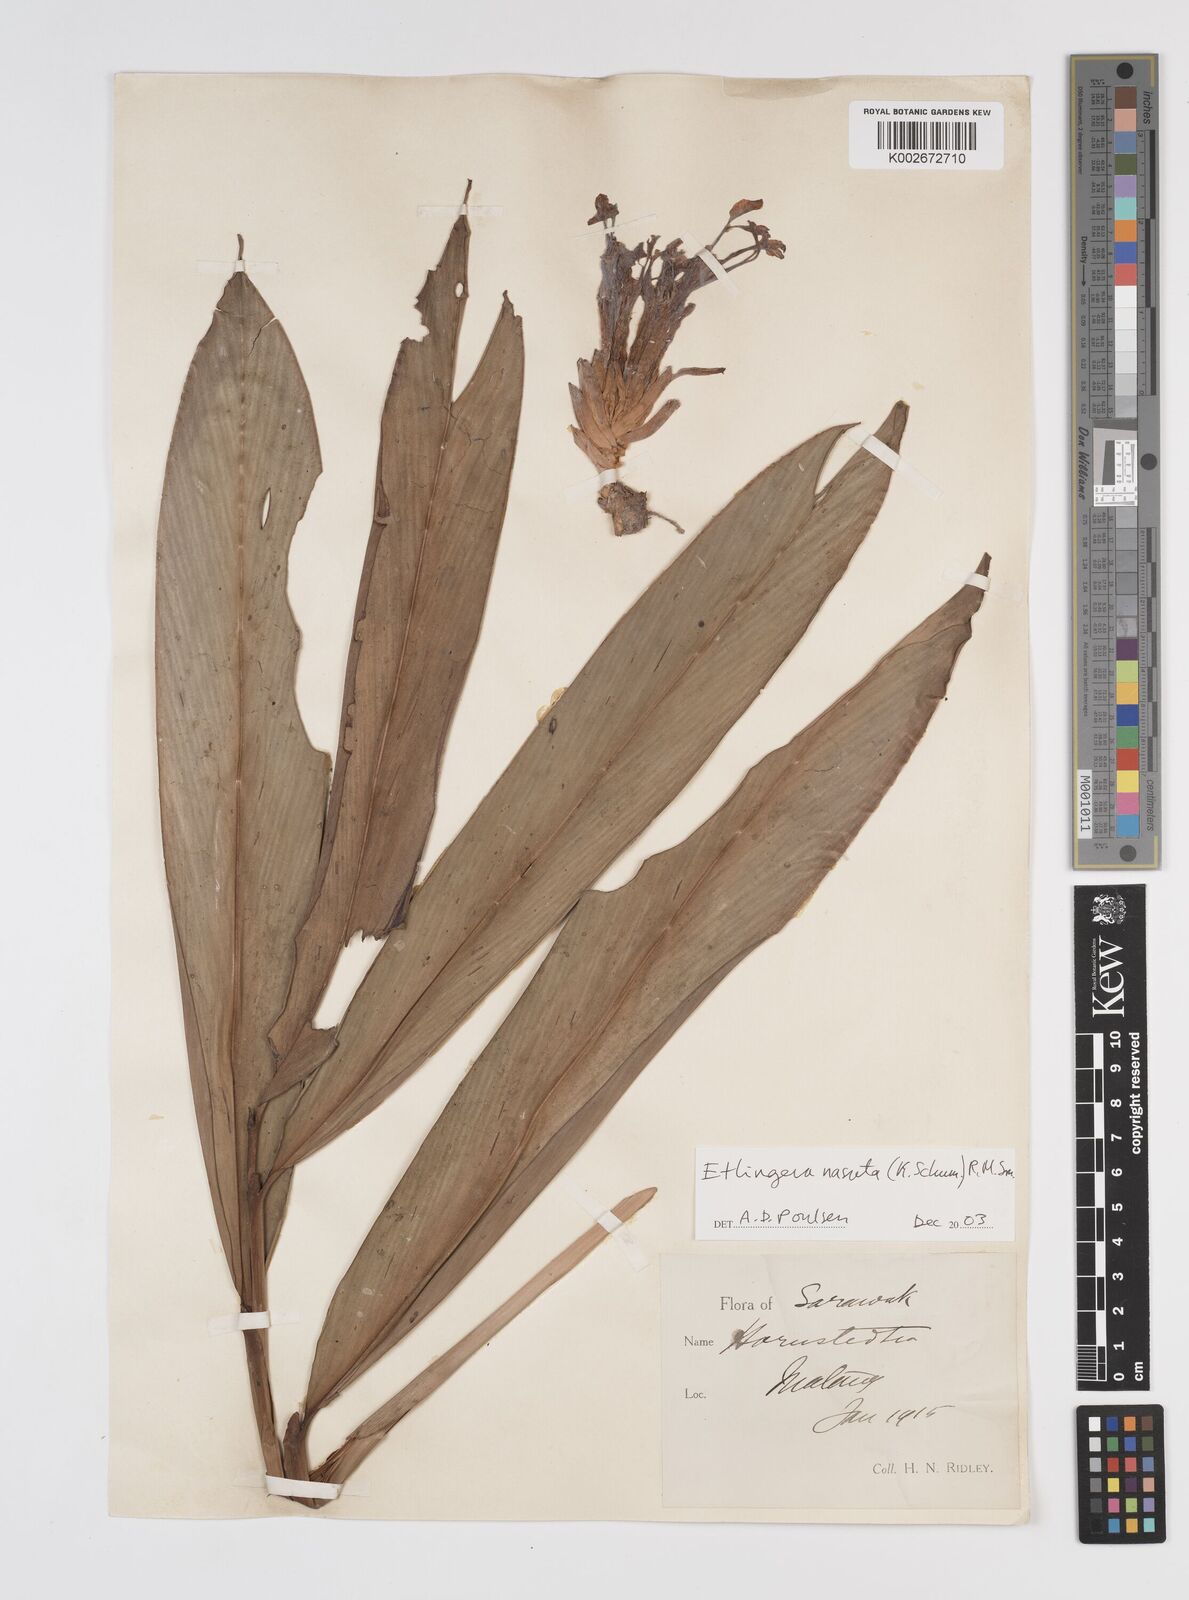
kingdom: Plantae
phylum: Tracheophyta
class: Liliopsida
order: Zingiberales
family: Zingiberaceae
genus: Etlingera
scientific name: Etlingera nasuta
